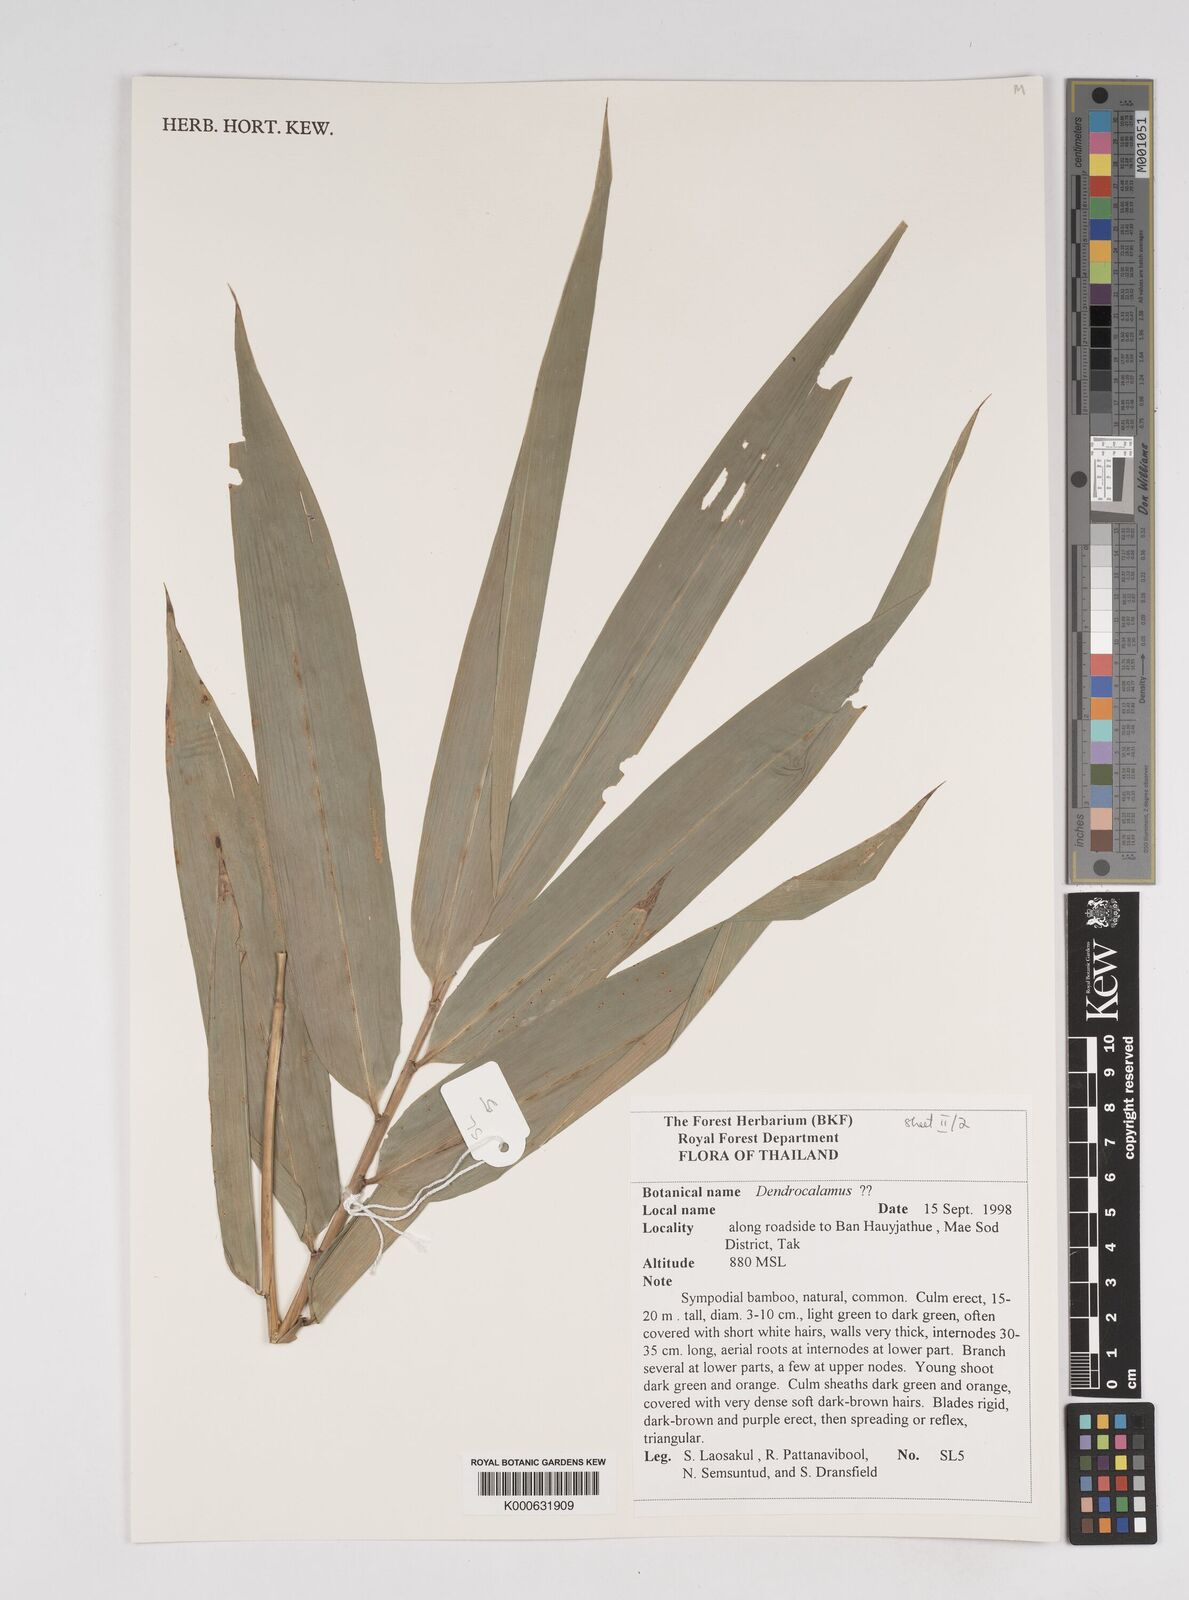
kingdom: Plantae
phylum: Tracheophyta
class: Liliopsida
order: Poales
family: Poaceae
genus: Dendrocalamus
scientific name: Dendrocalamus brandisii
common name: Velvetleaf bamboo
